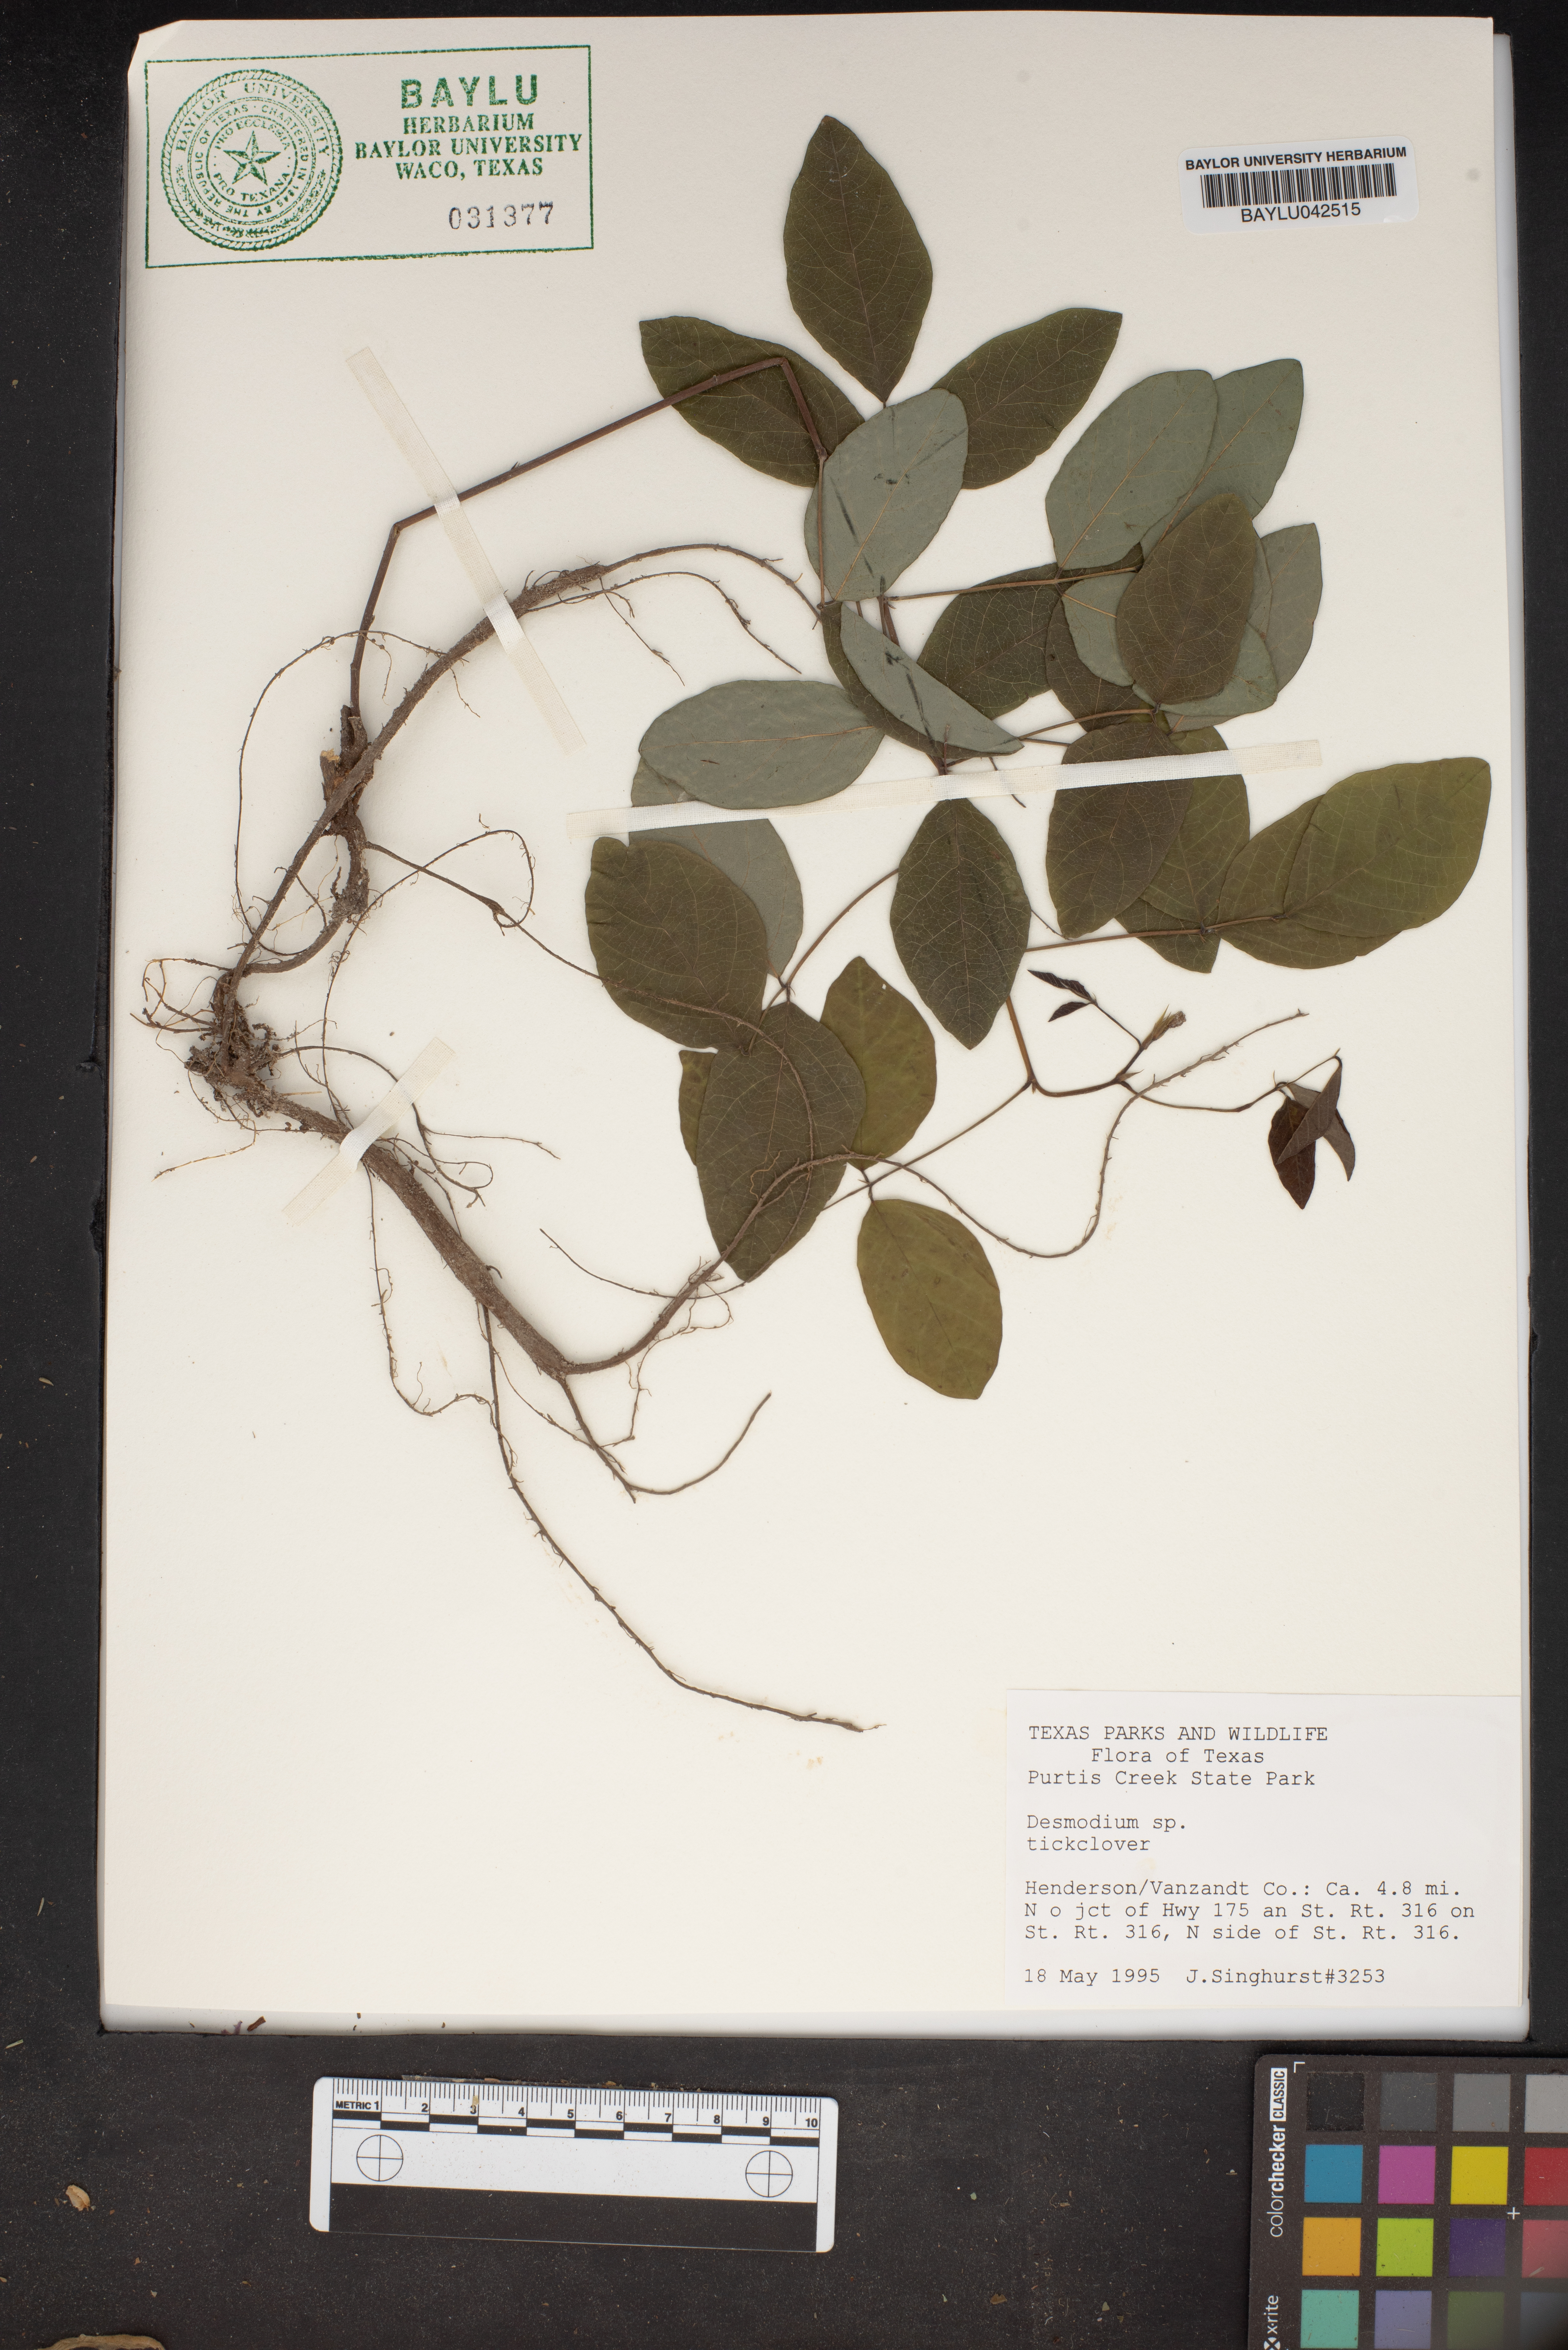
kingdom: Plantae
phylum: Tracheophyta
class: Magnoliopsida
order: Fabales
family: Fabaceae
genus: Desmodium
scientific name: Desmodium
